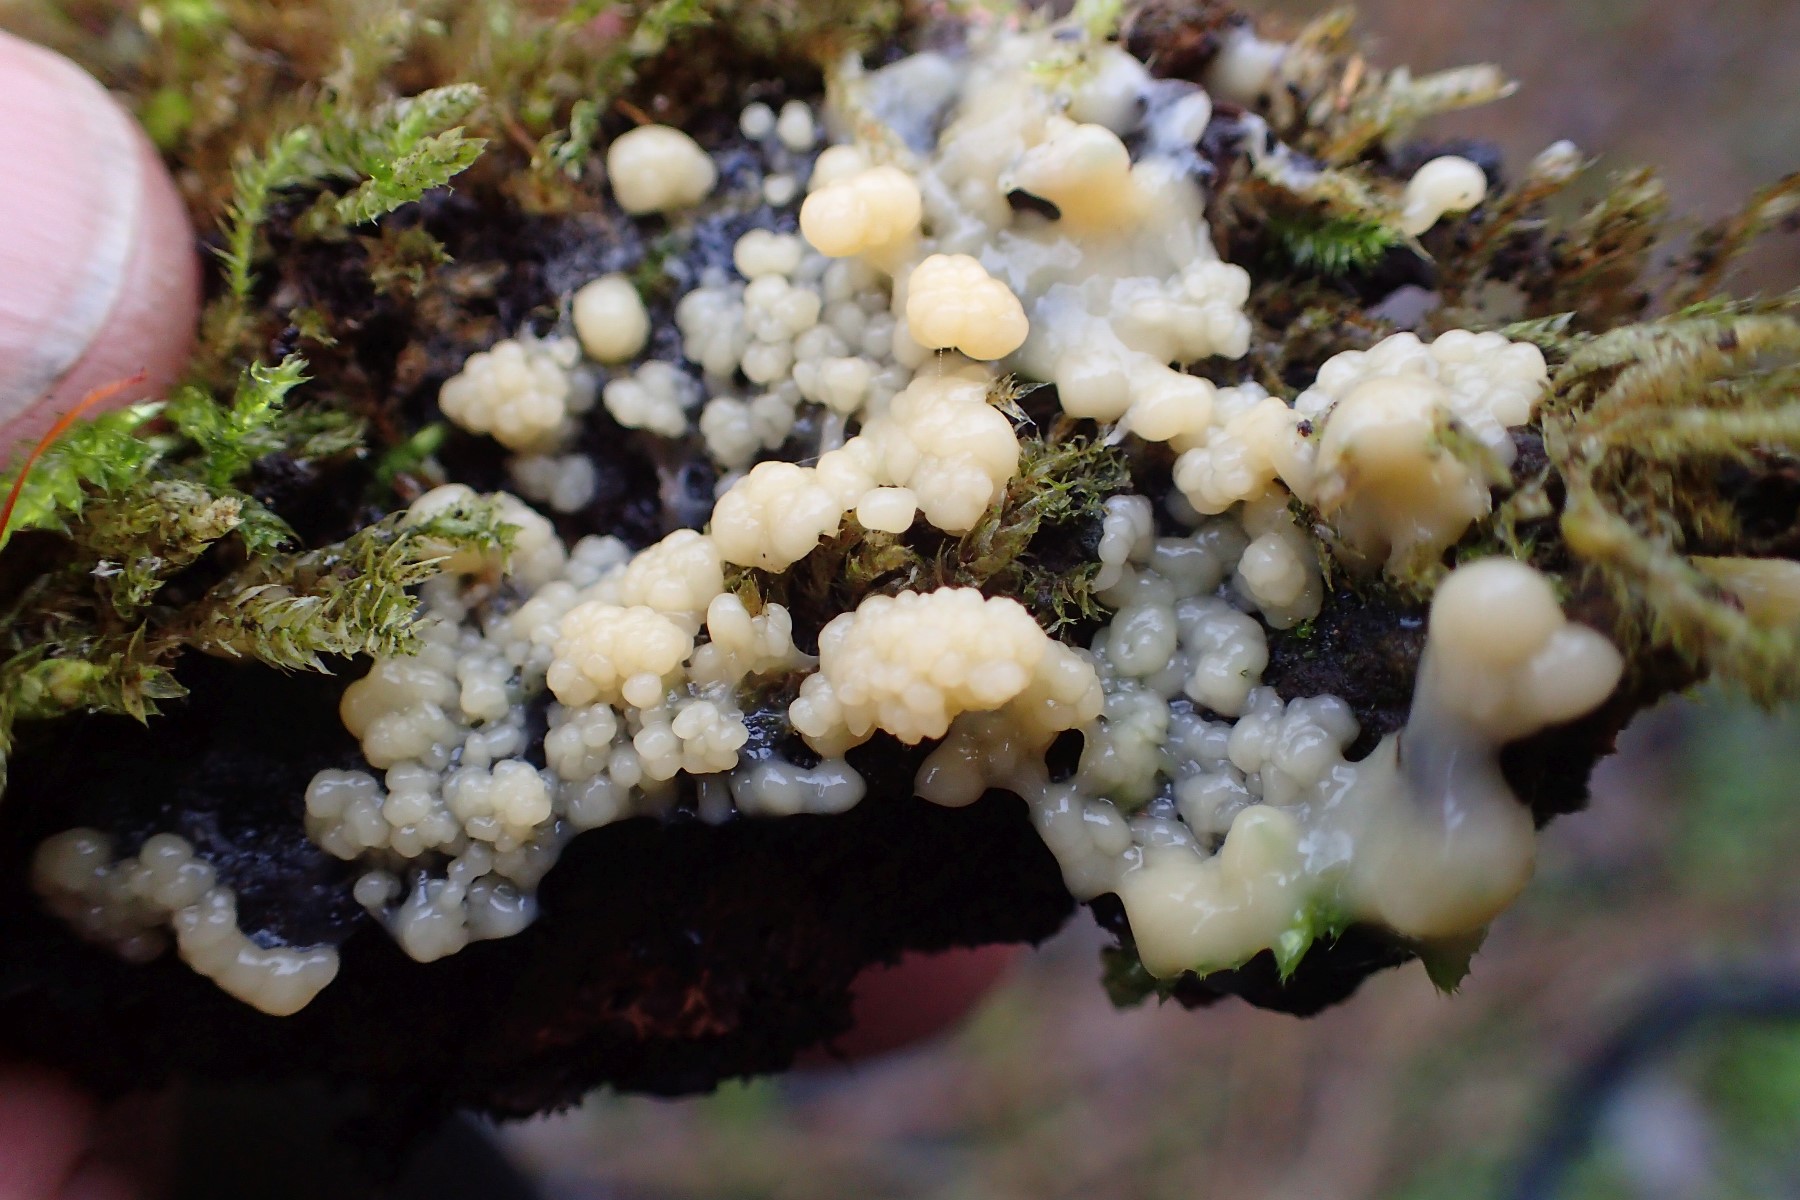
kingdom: Protozoa
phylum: Mycetozoa
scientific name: Mycetozoa
